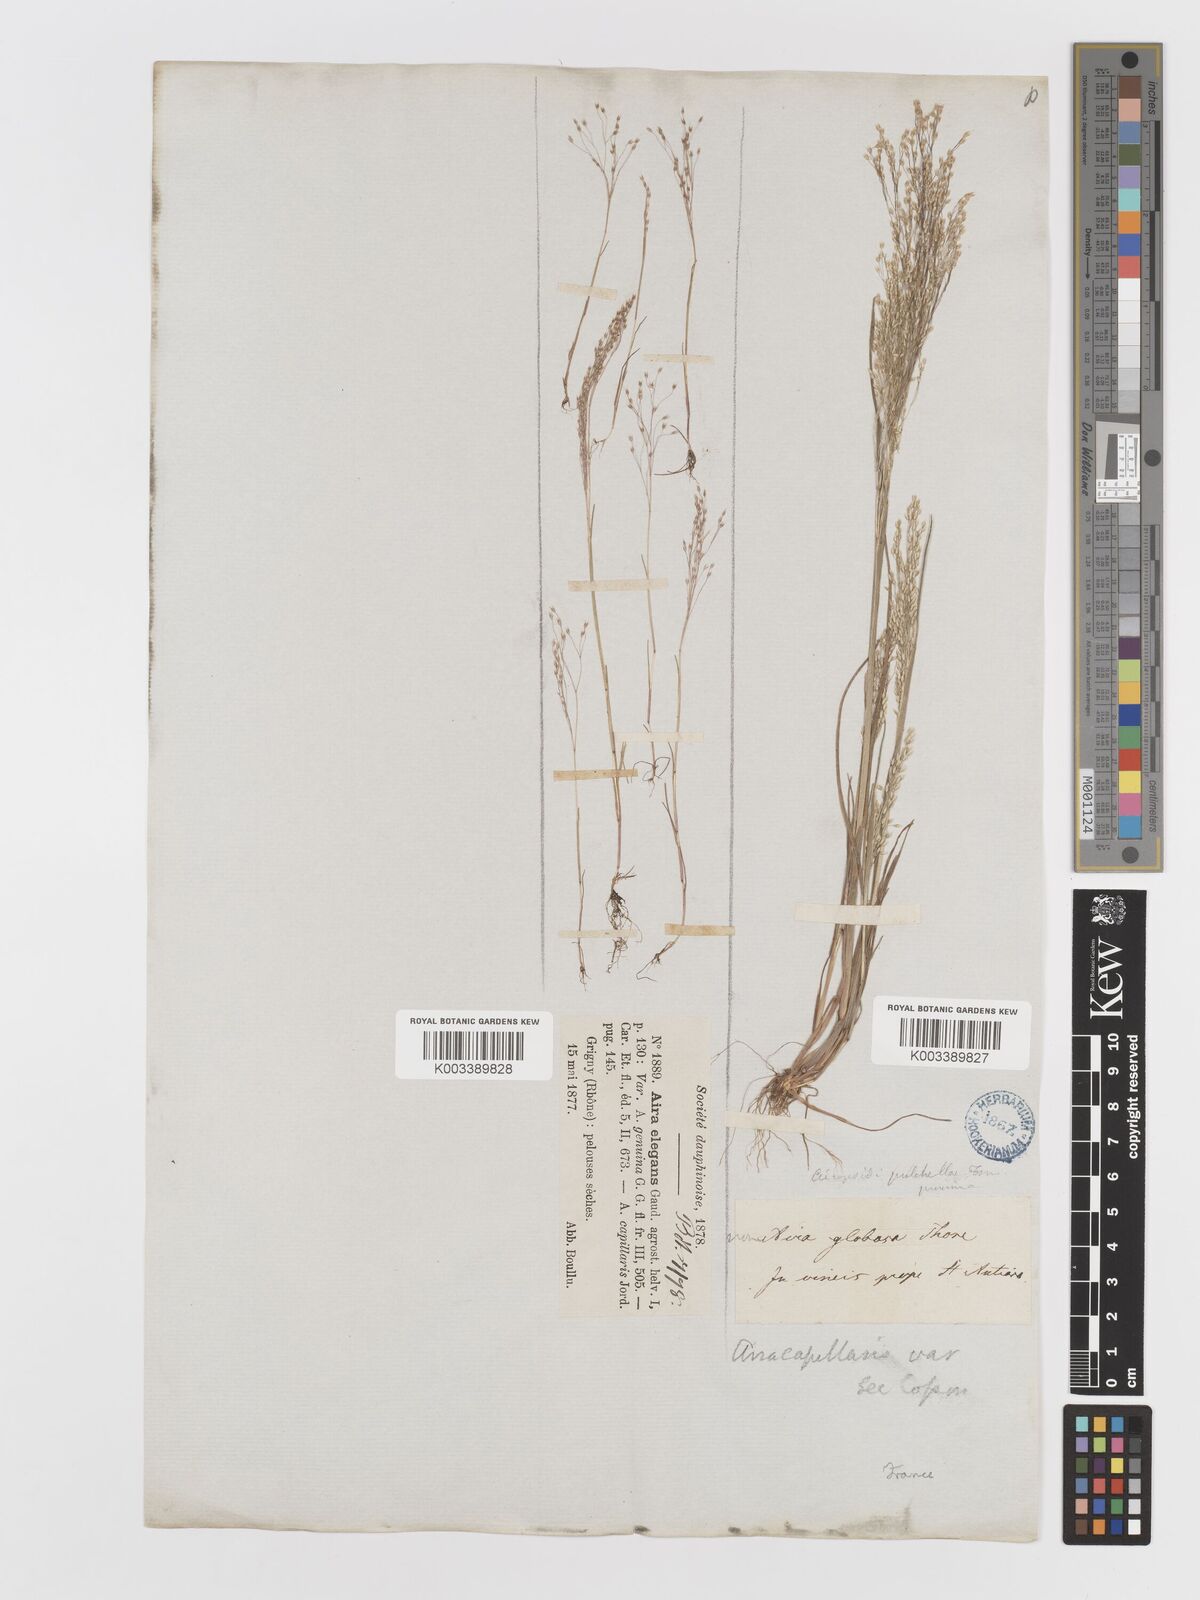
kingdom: Plantae
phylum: Tracheophyta
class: Liliopsida
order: Poales
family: Poaceae
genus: Aira
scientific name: Aira elegans
